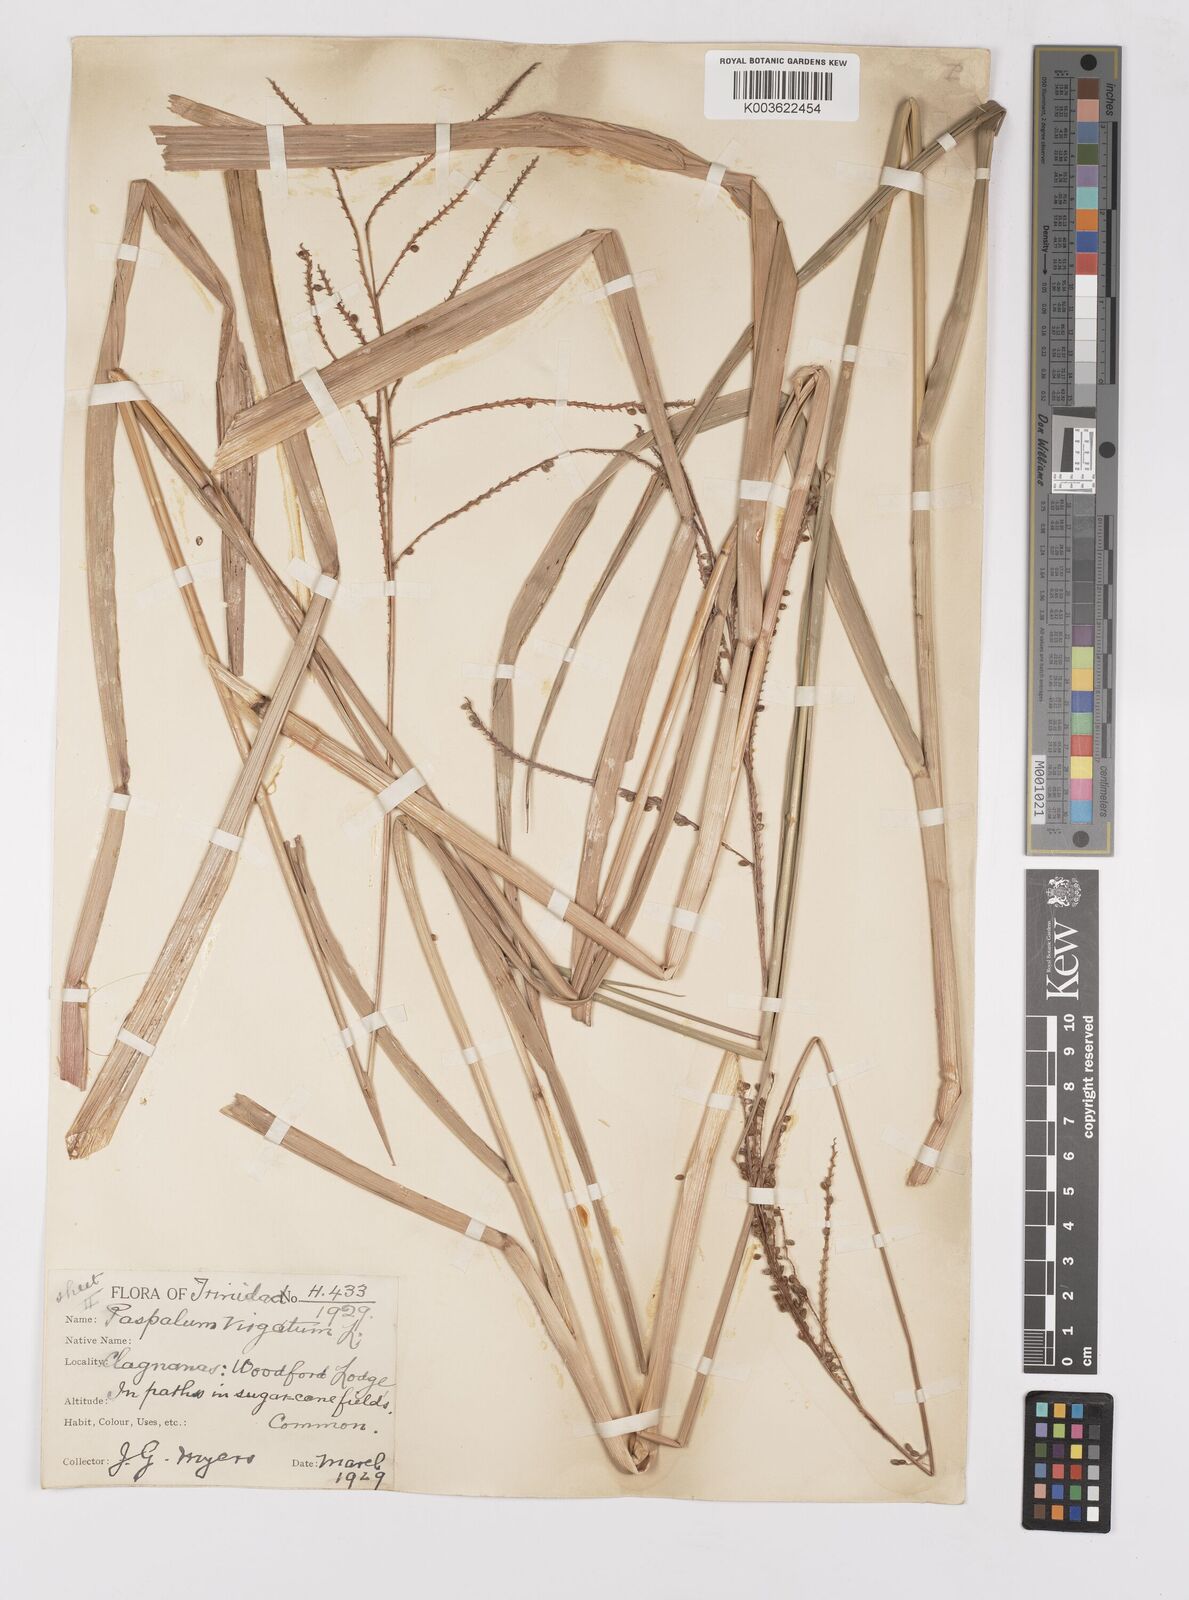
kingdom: Plantae
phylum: Tracheophyta
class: Liliopsida
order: Poales
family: Poaceae
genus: Paspalum
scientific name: Paspalum virgatum
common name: Talquezal
